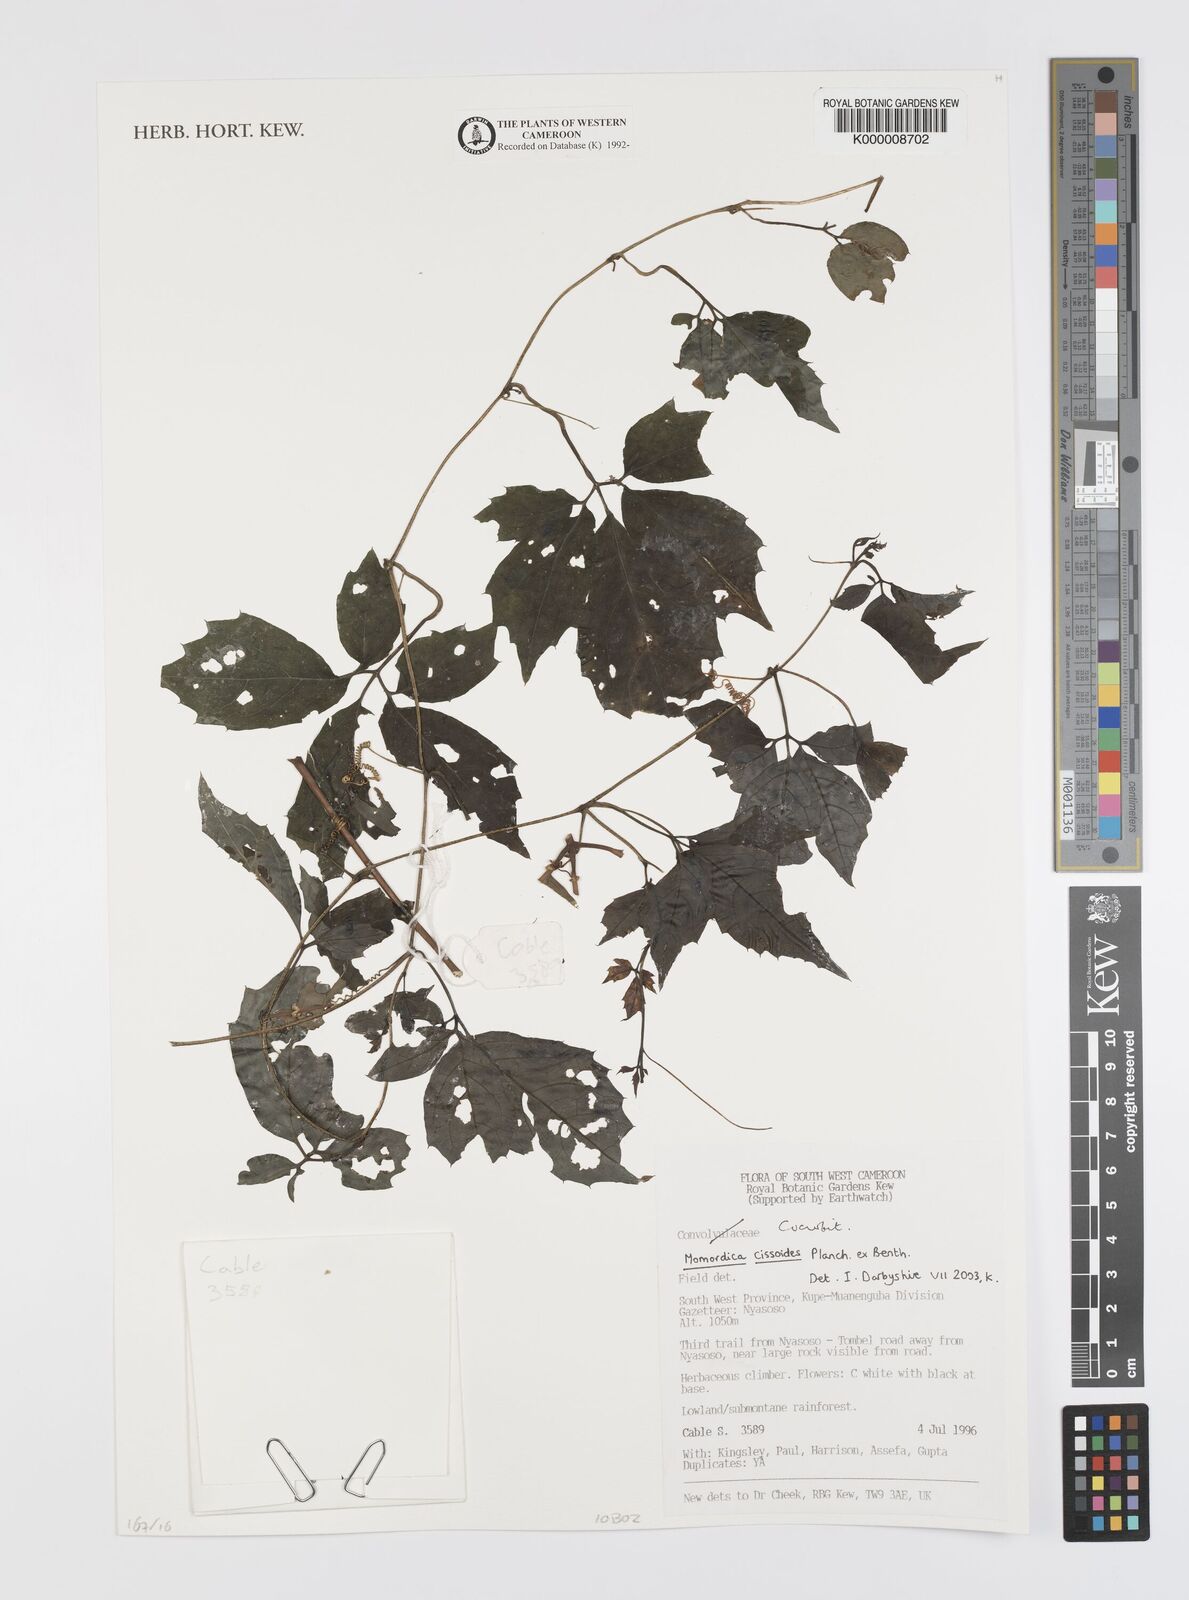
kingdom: Plantae
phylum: Tracheophyta
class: Magnoliopsida
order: Cucurbitales
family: Cucurbitaceae
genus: Momordica
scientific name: Momordica cissoides
